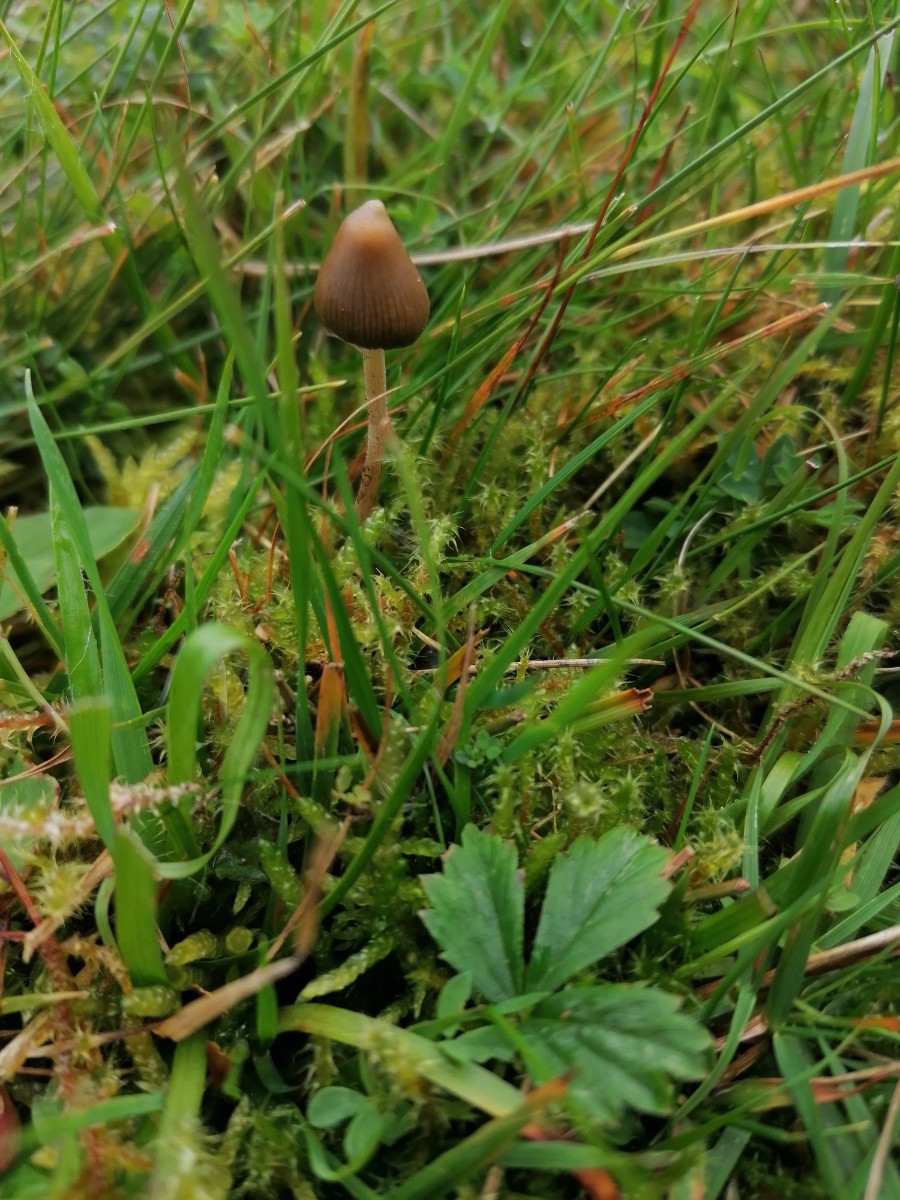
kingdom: Fungi
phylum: Basidiomycota
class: Agaricomycetes
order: Agaricales
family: Hymenogastraceae
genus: Psilocybe
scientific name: Psilocybe semilanceata
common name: spids nøgenhat
